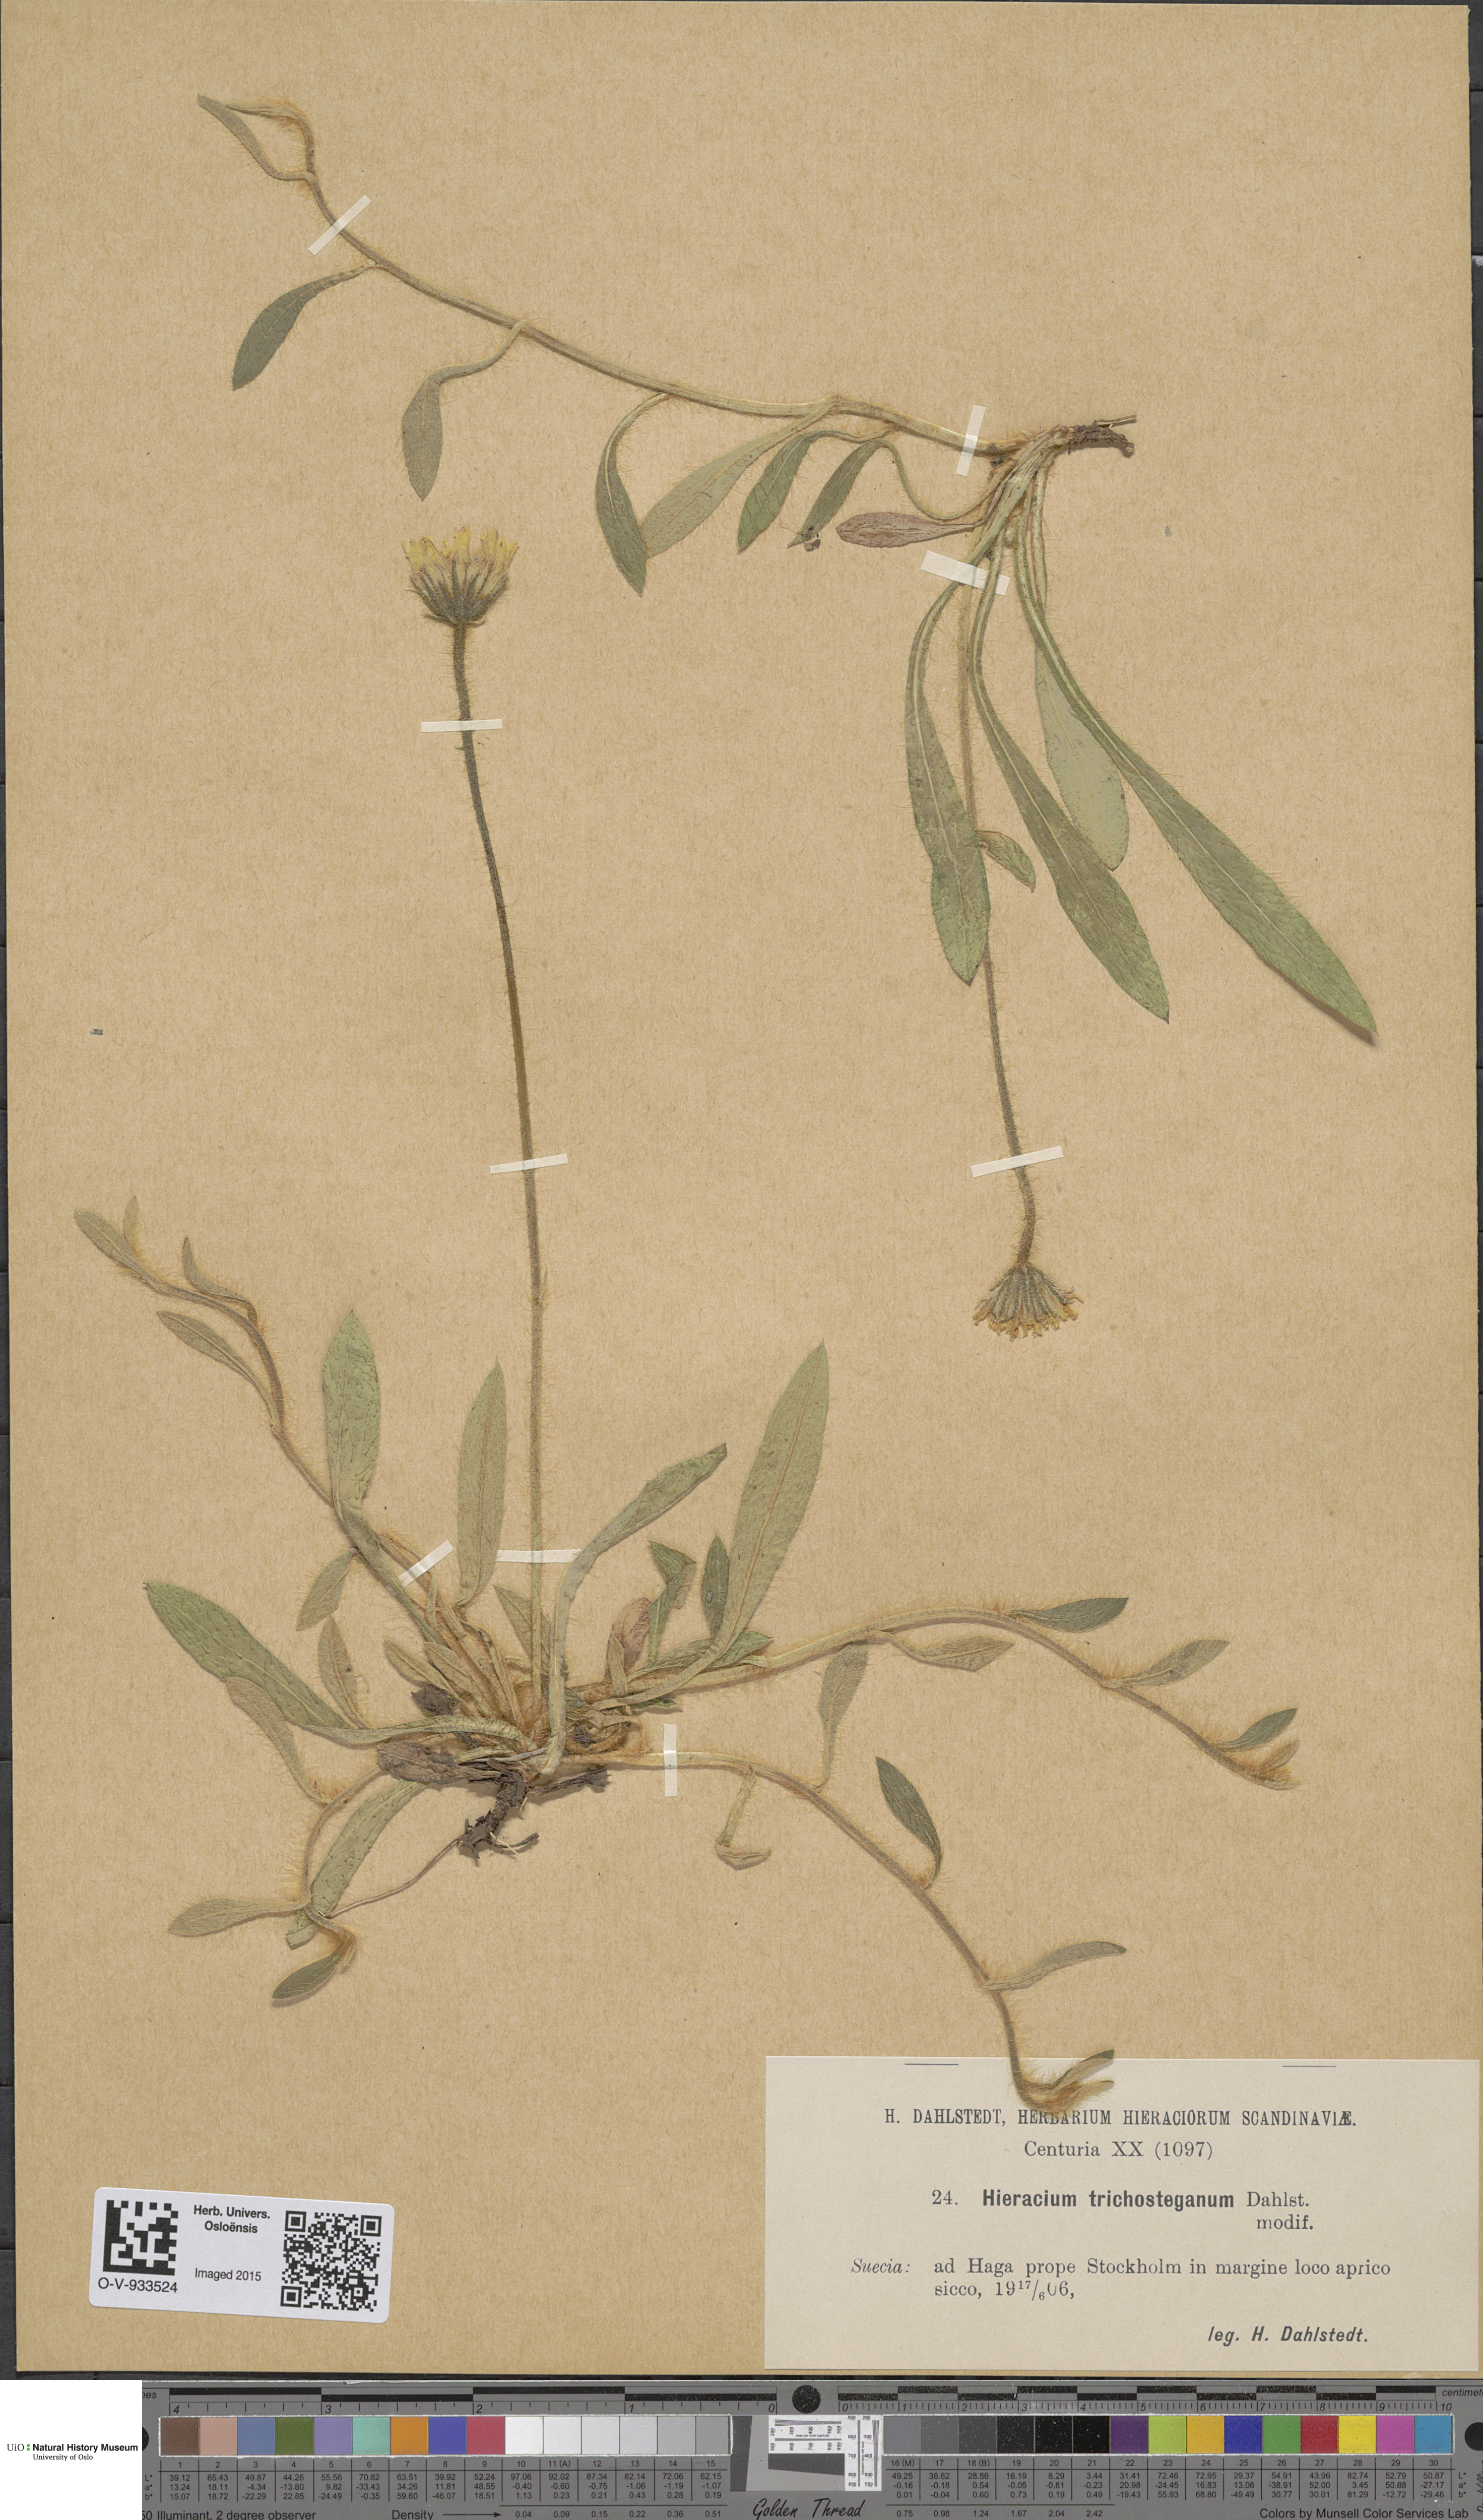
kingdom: Plantae
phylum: Tracheophyta
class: Magnoliopsida
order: Asterales
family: Asteraceae
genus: Pilosella
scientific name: Pilosella officinarum
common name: Mouse-ear hawkweed
